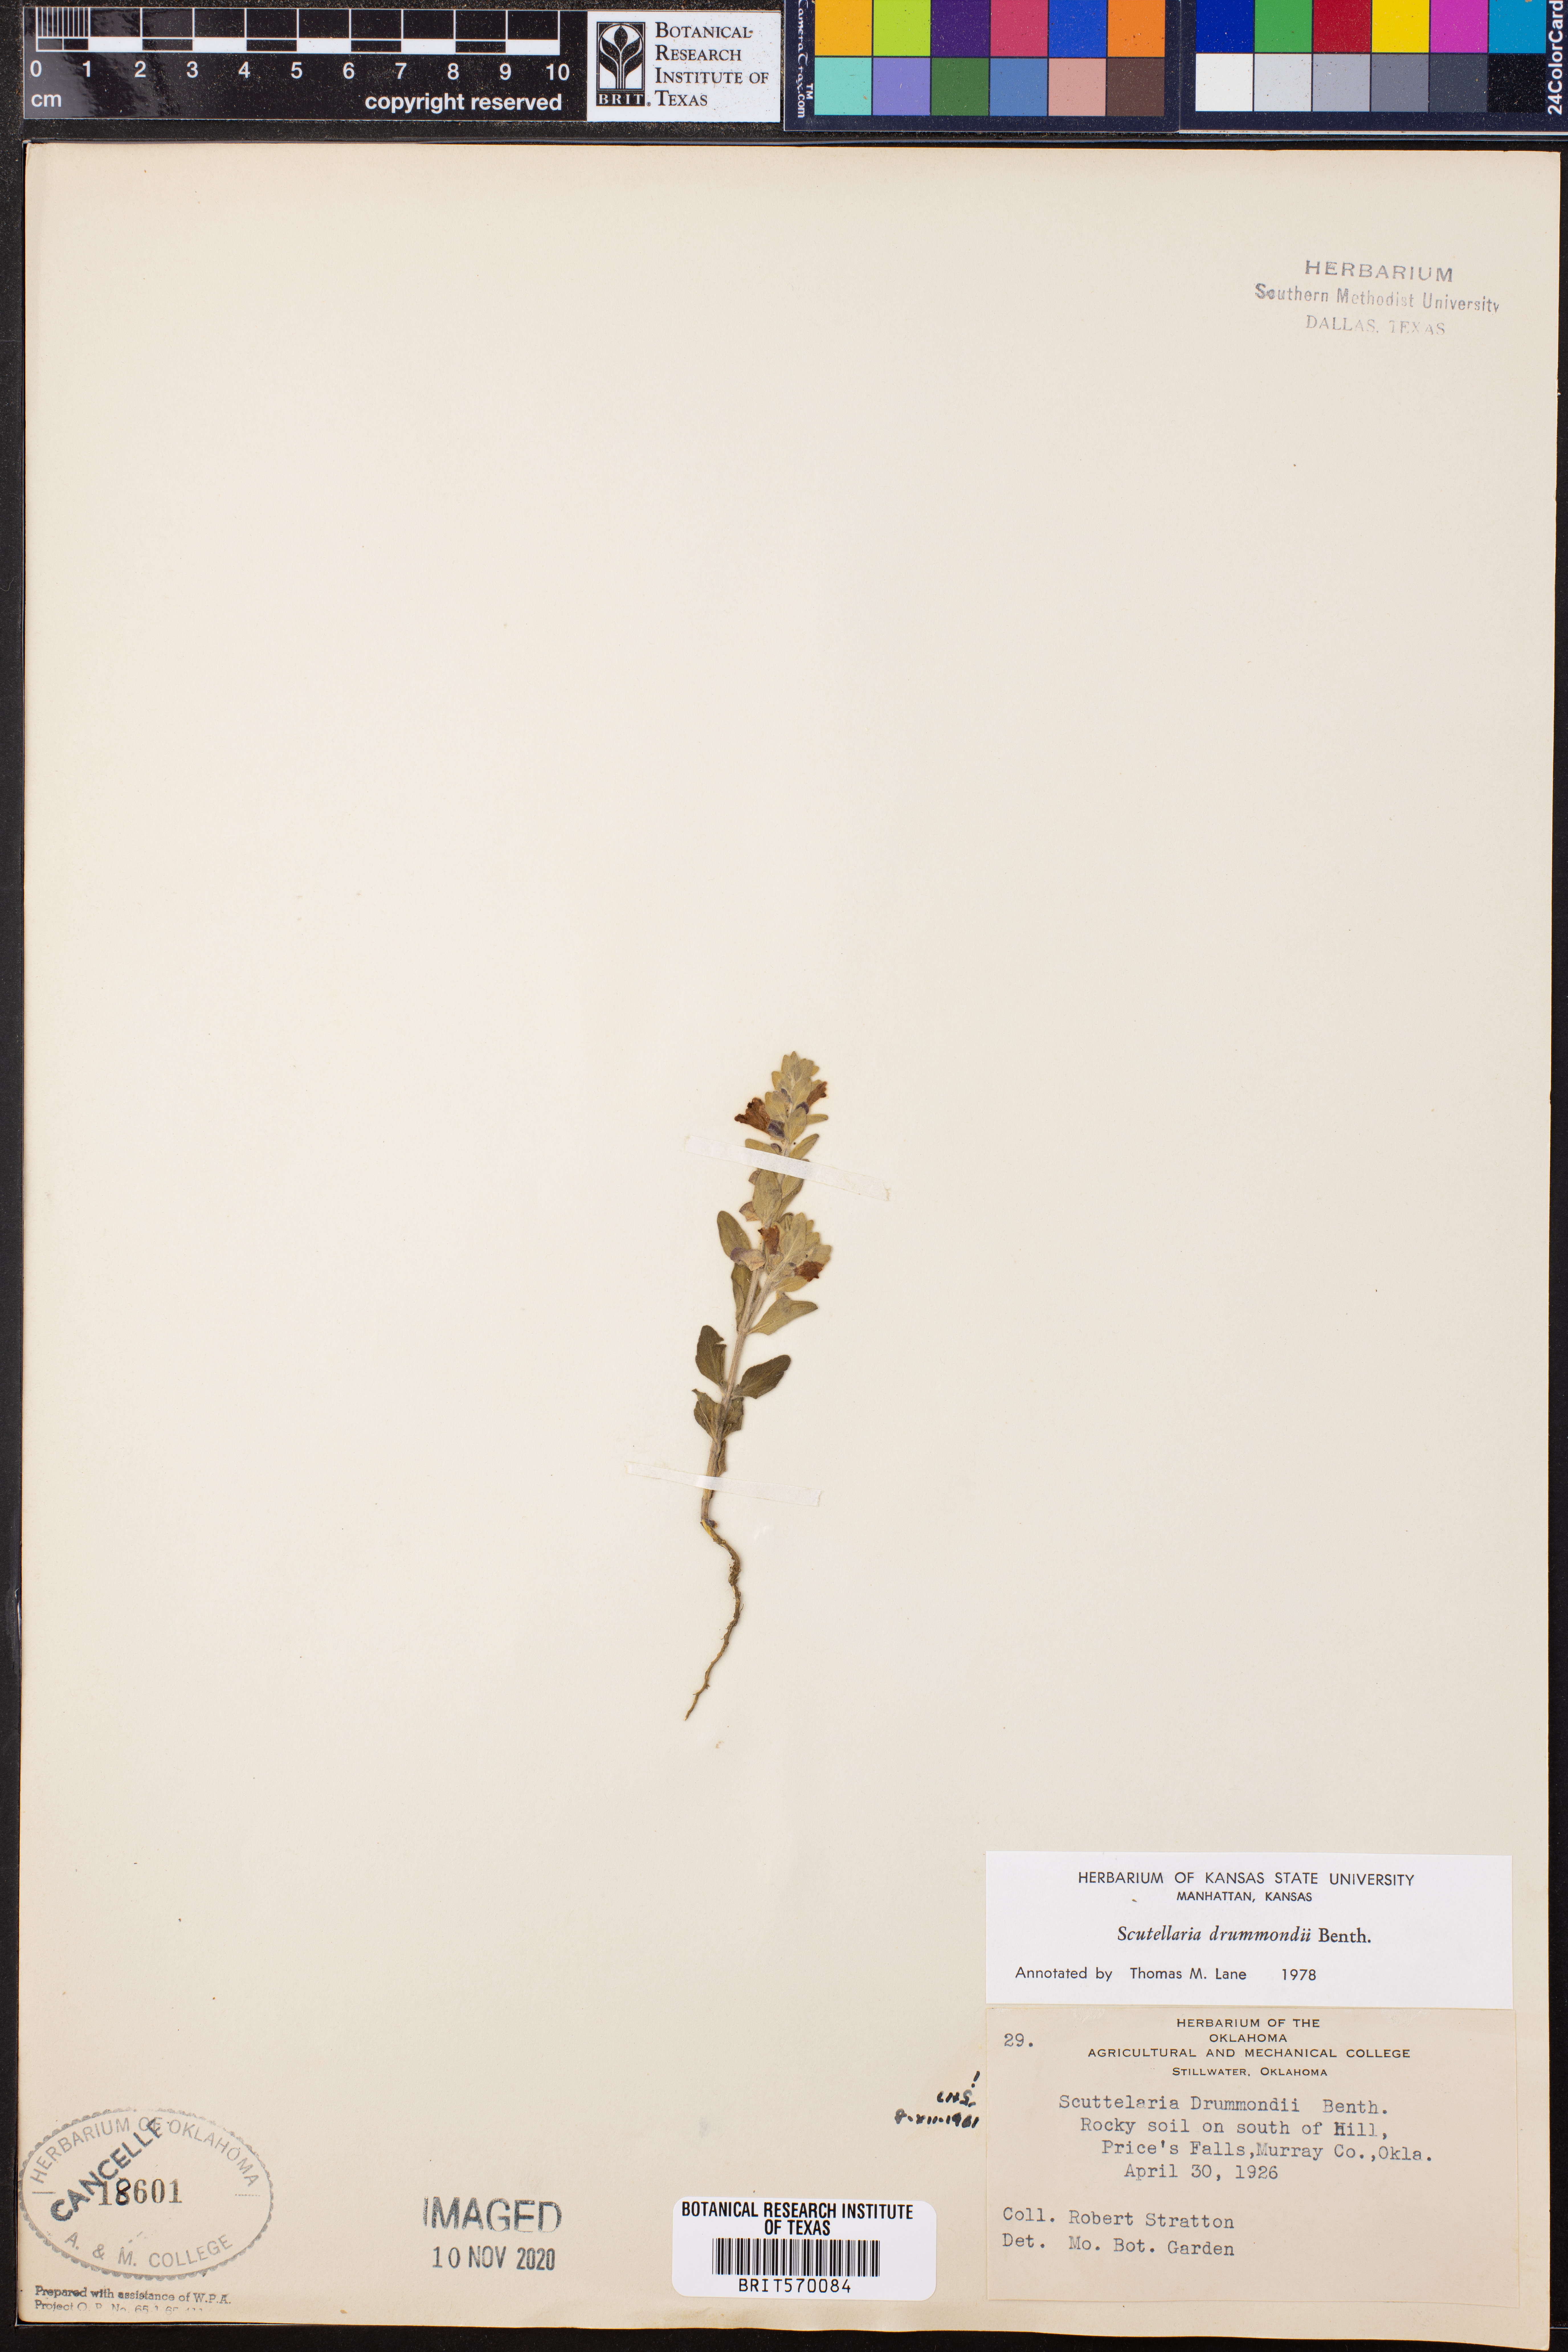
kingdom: Plantae
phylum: Tracheophyta
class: Magnoliopsida
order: Lamiales
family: Lamiaceae
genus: Scutellaria
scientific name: Scutellaria drummondii
